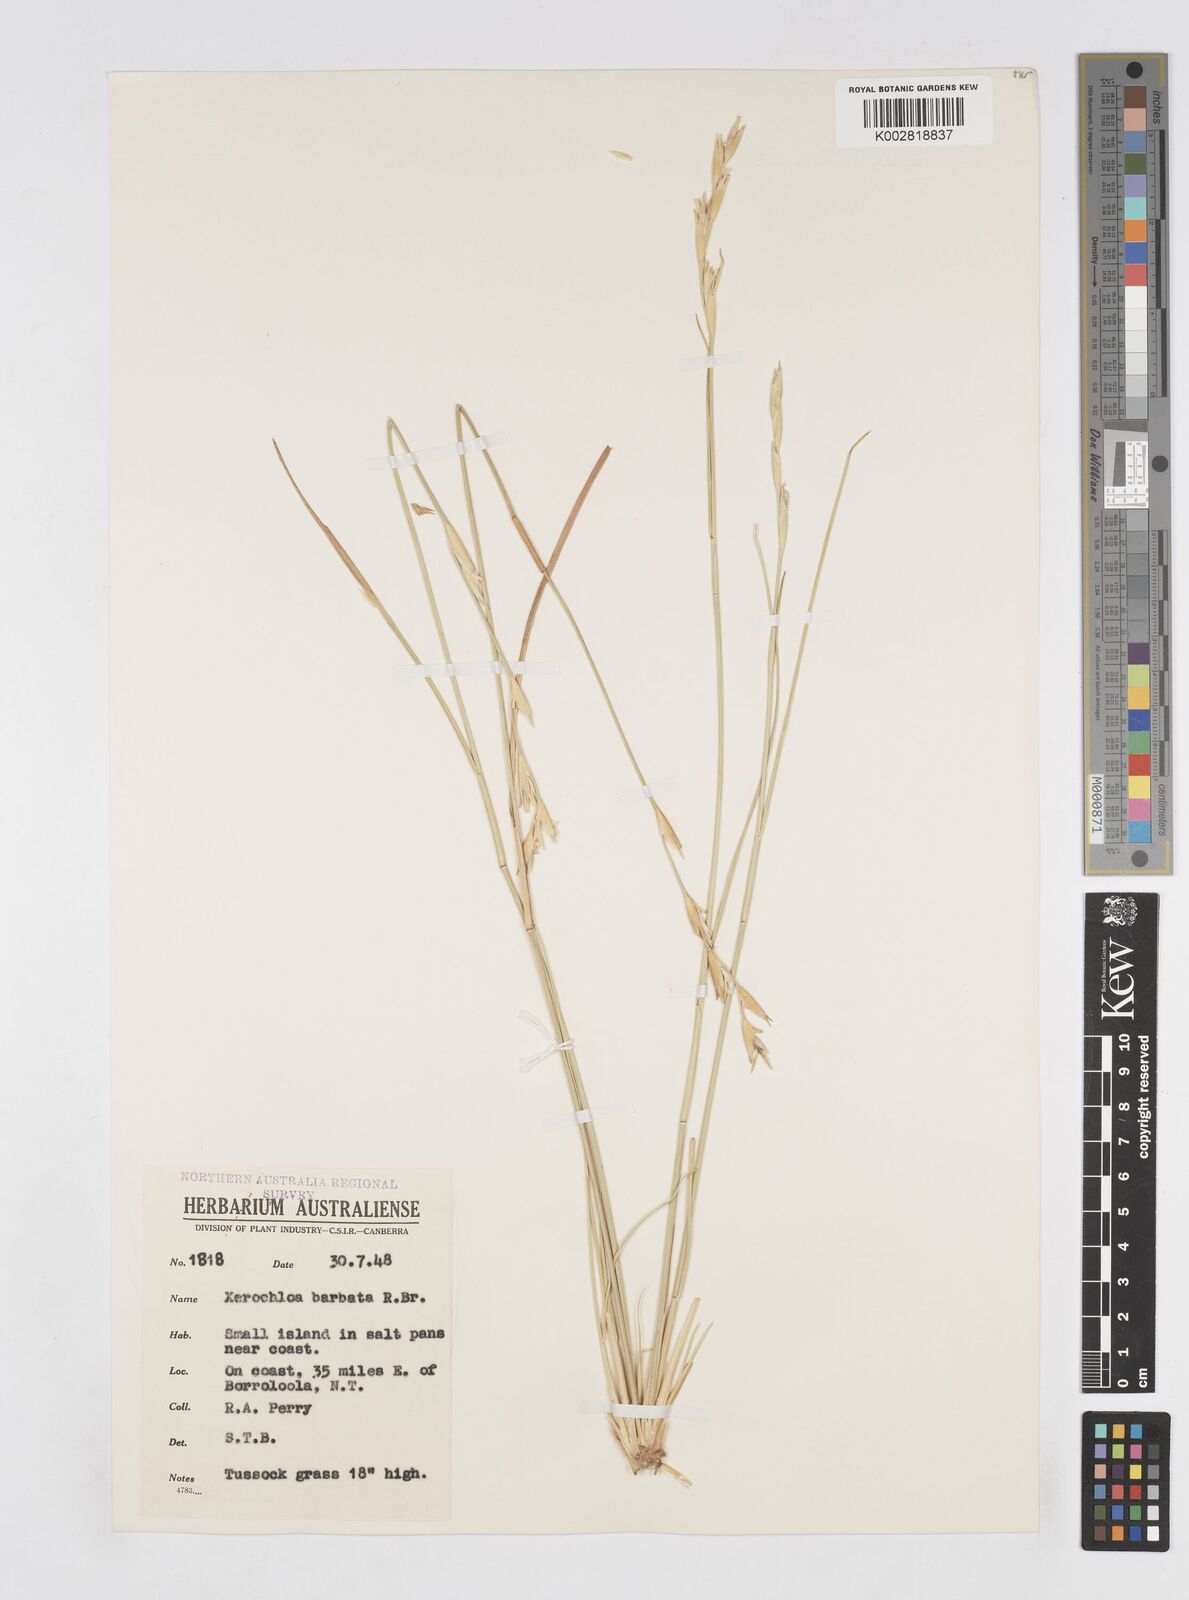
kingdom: Plantae
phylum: Tracheophyta
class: Liliopsida
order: Poales
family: Poaceae
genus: Xerochloa
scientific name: Xerochloa barbata
